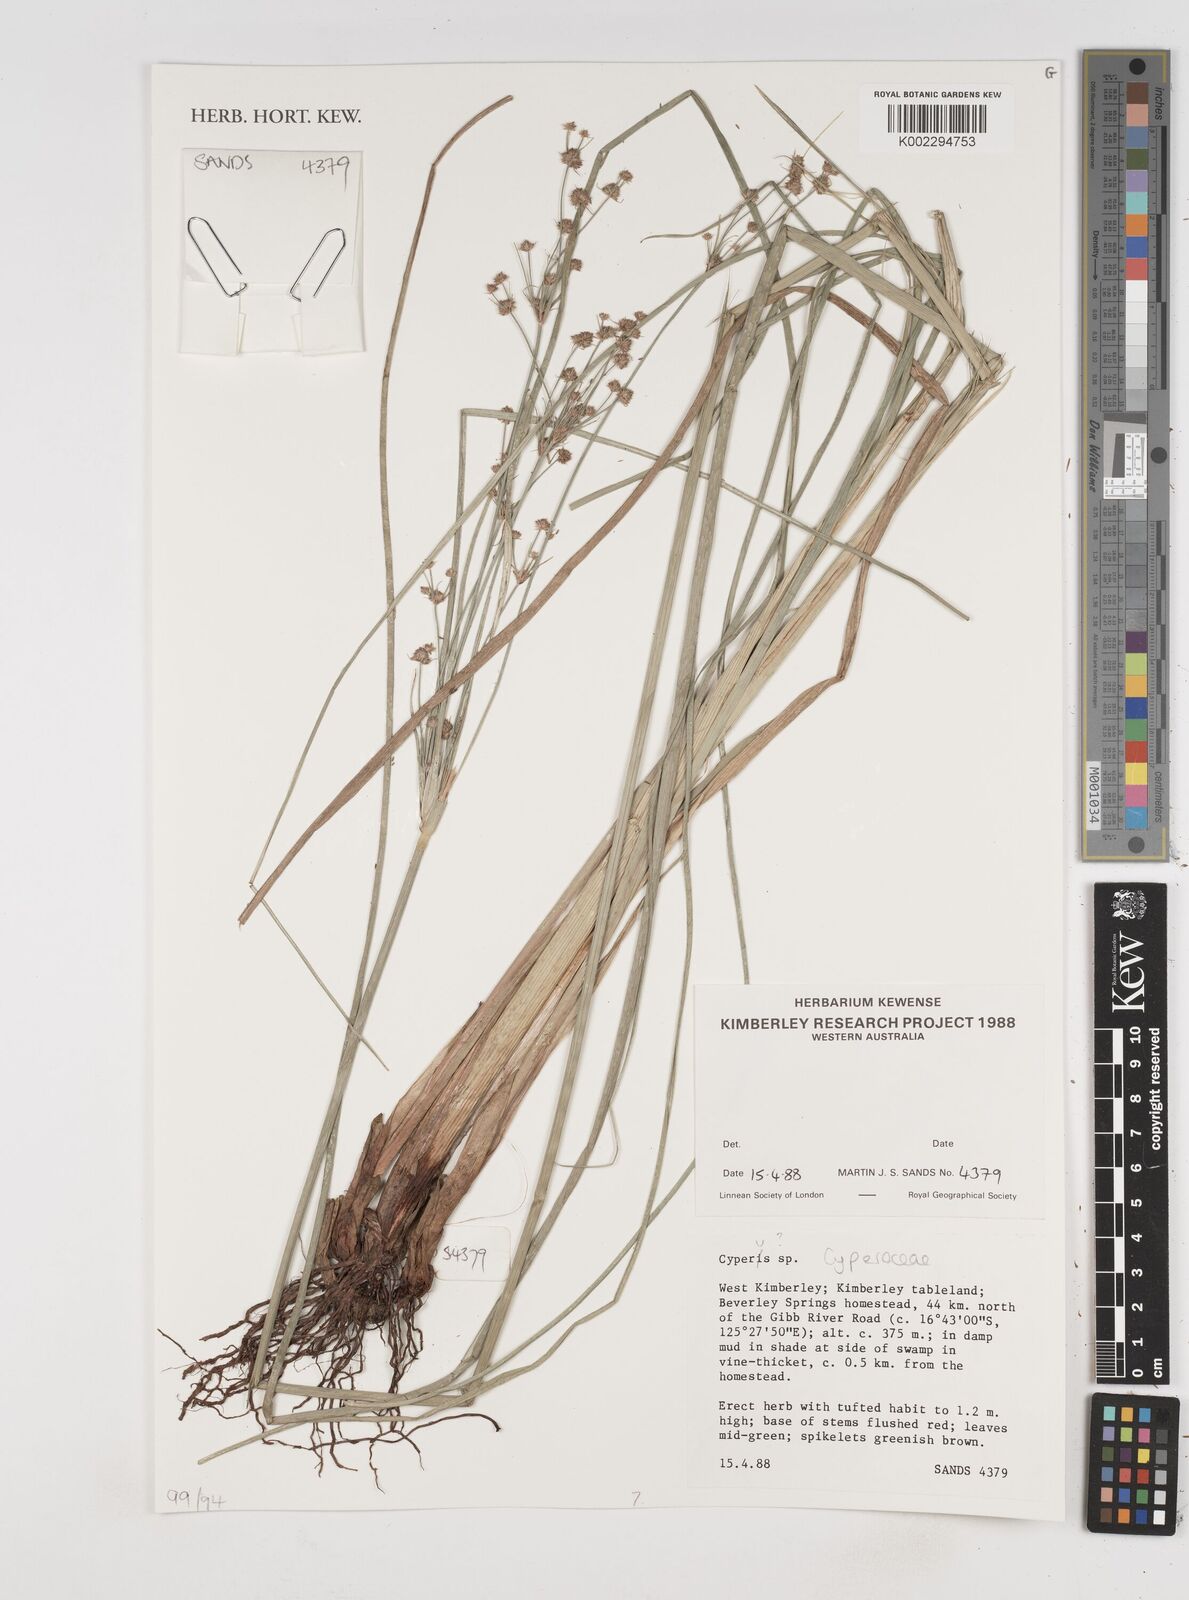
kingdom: Plantae
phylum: Tracheophyta
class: Liliopsida
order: Poales
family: Cyperaceae
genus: Cyperus
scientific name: Cyperus
